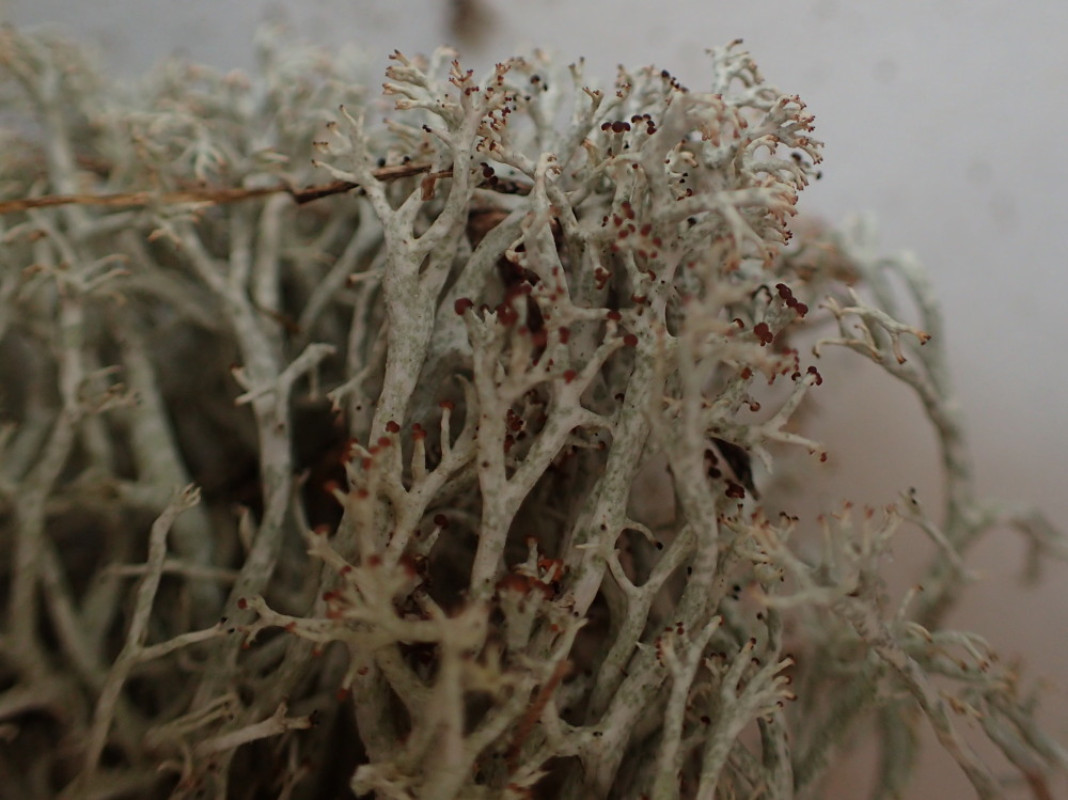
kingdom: Fungi
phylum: Ascomycota
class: Lecanoromycetes
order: Lecanorales
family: Cladoniaceae
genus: Cladonia
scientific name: Cladonia ciliata
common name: spinkel rensdyrlav
